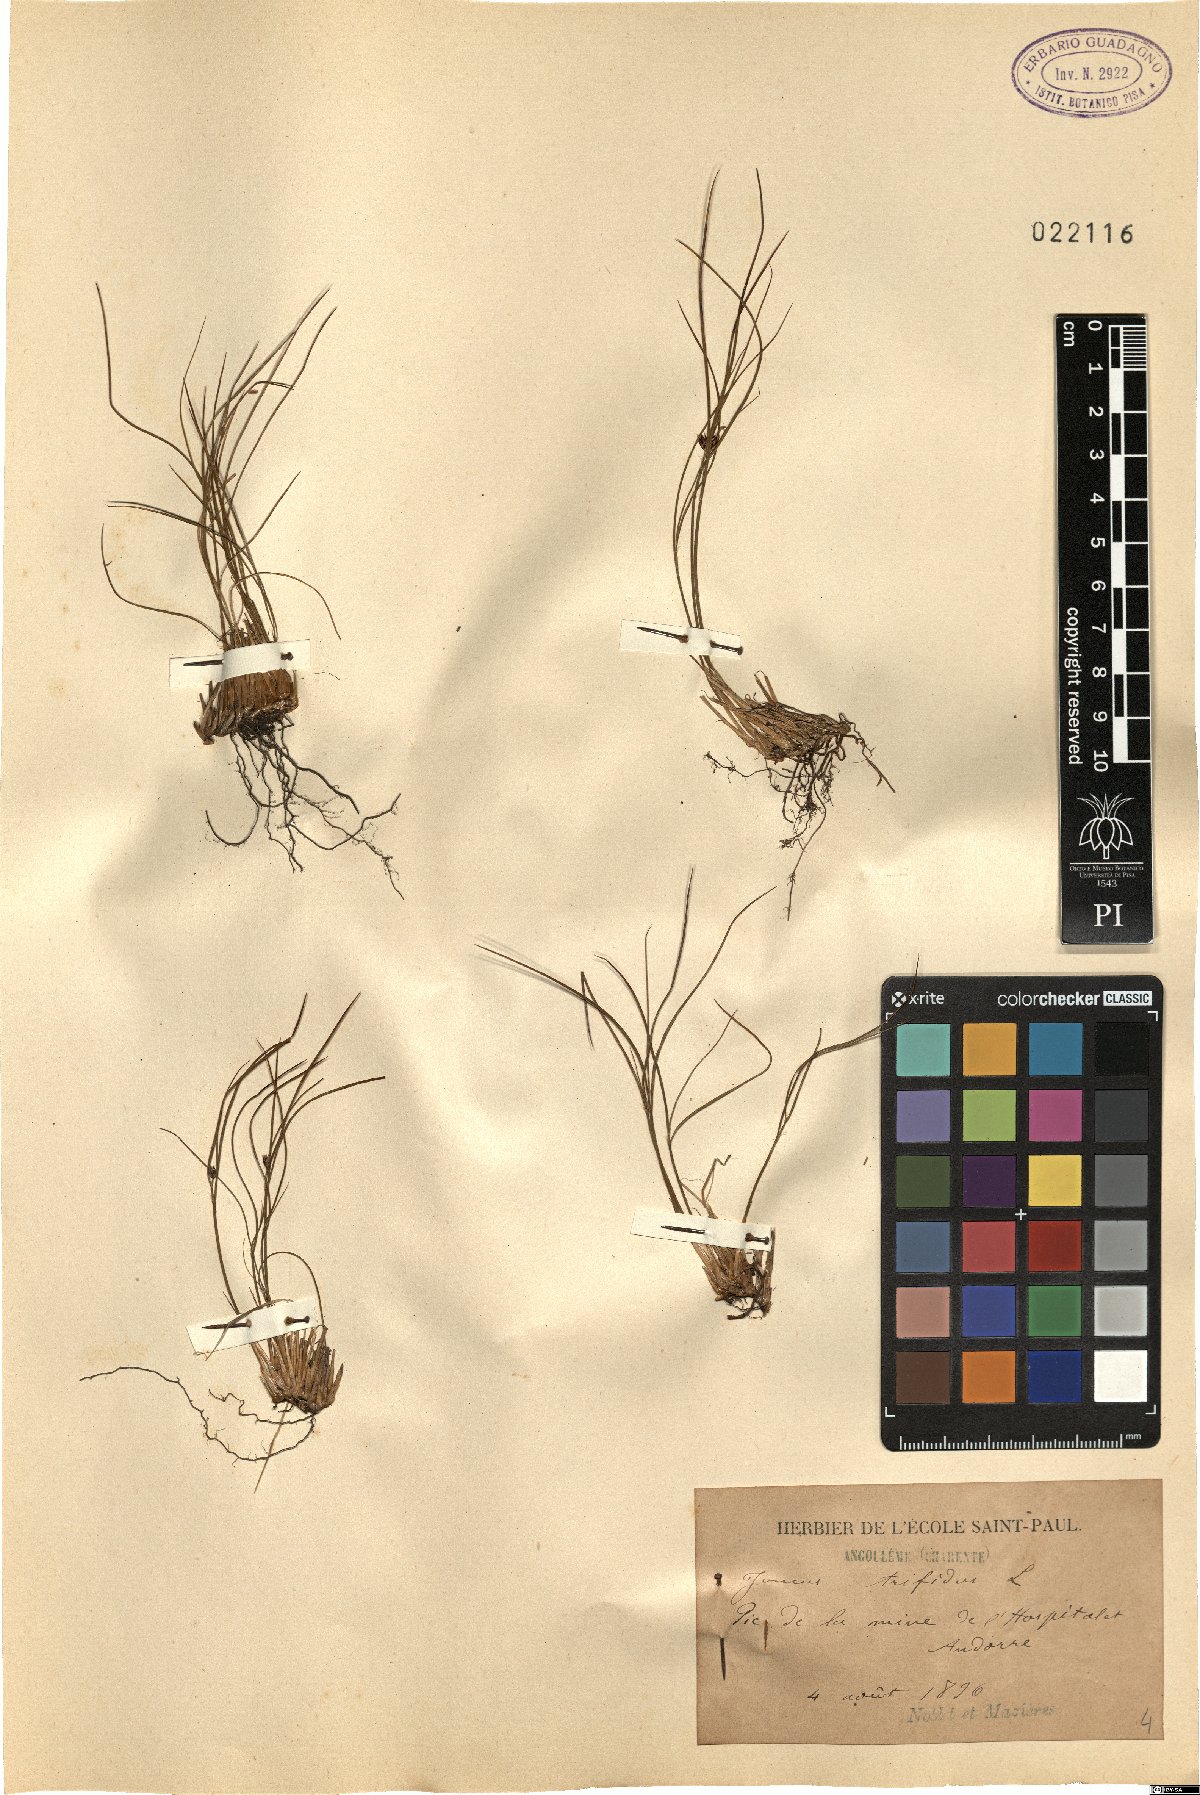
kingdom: Plantae
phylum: Tracheophyta
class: Liliopsida
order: Poales
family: Juncaceae
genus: Oreojuncus
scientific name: Oreojuncus trifidus
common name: Highland rush
